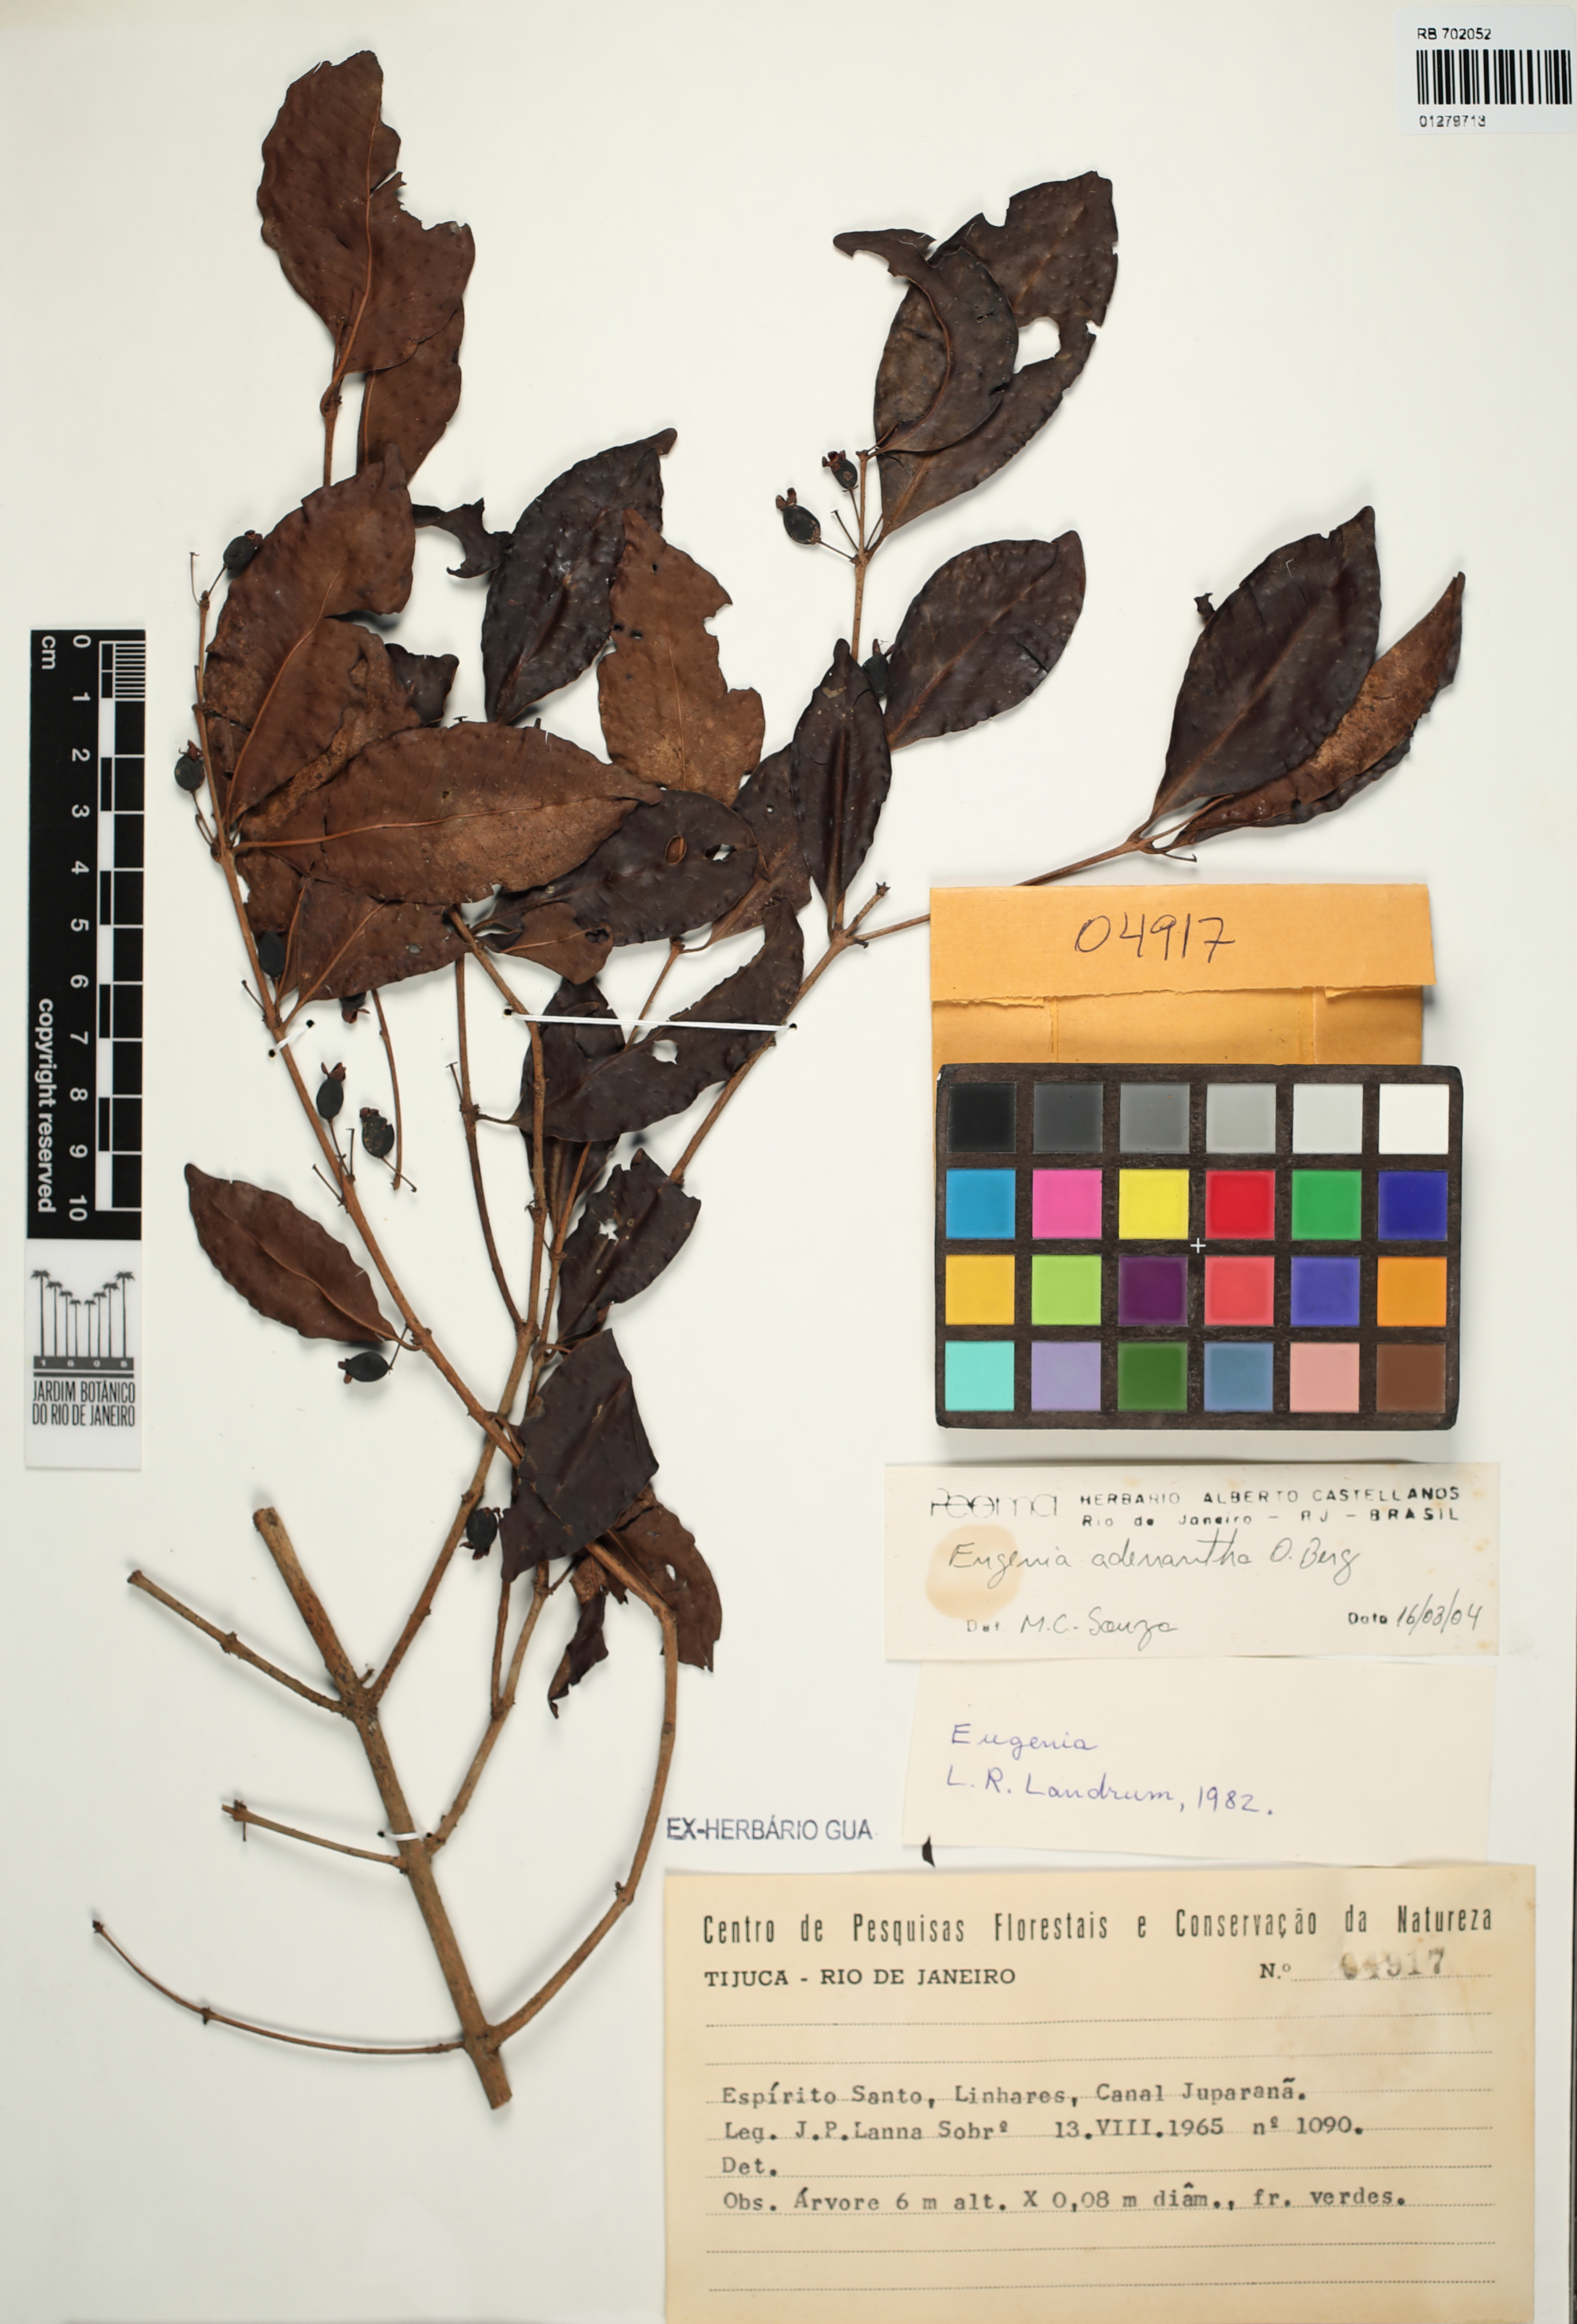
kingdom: Plantae
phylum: Tracheophyta
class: Magnoliopsida
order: Myrtales
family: Myrtaceae
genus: Eugenia
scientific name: Eugenia adenantha
